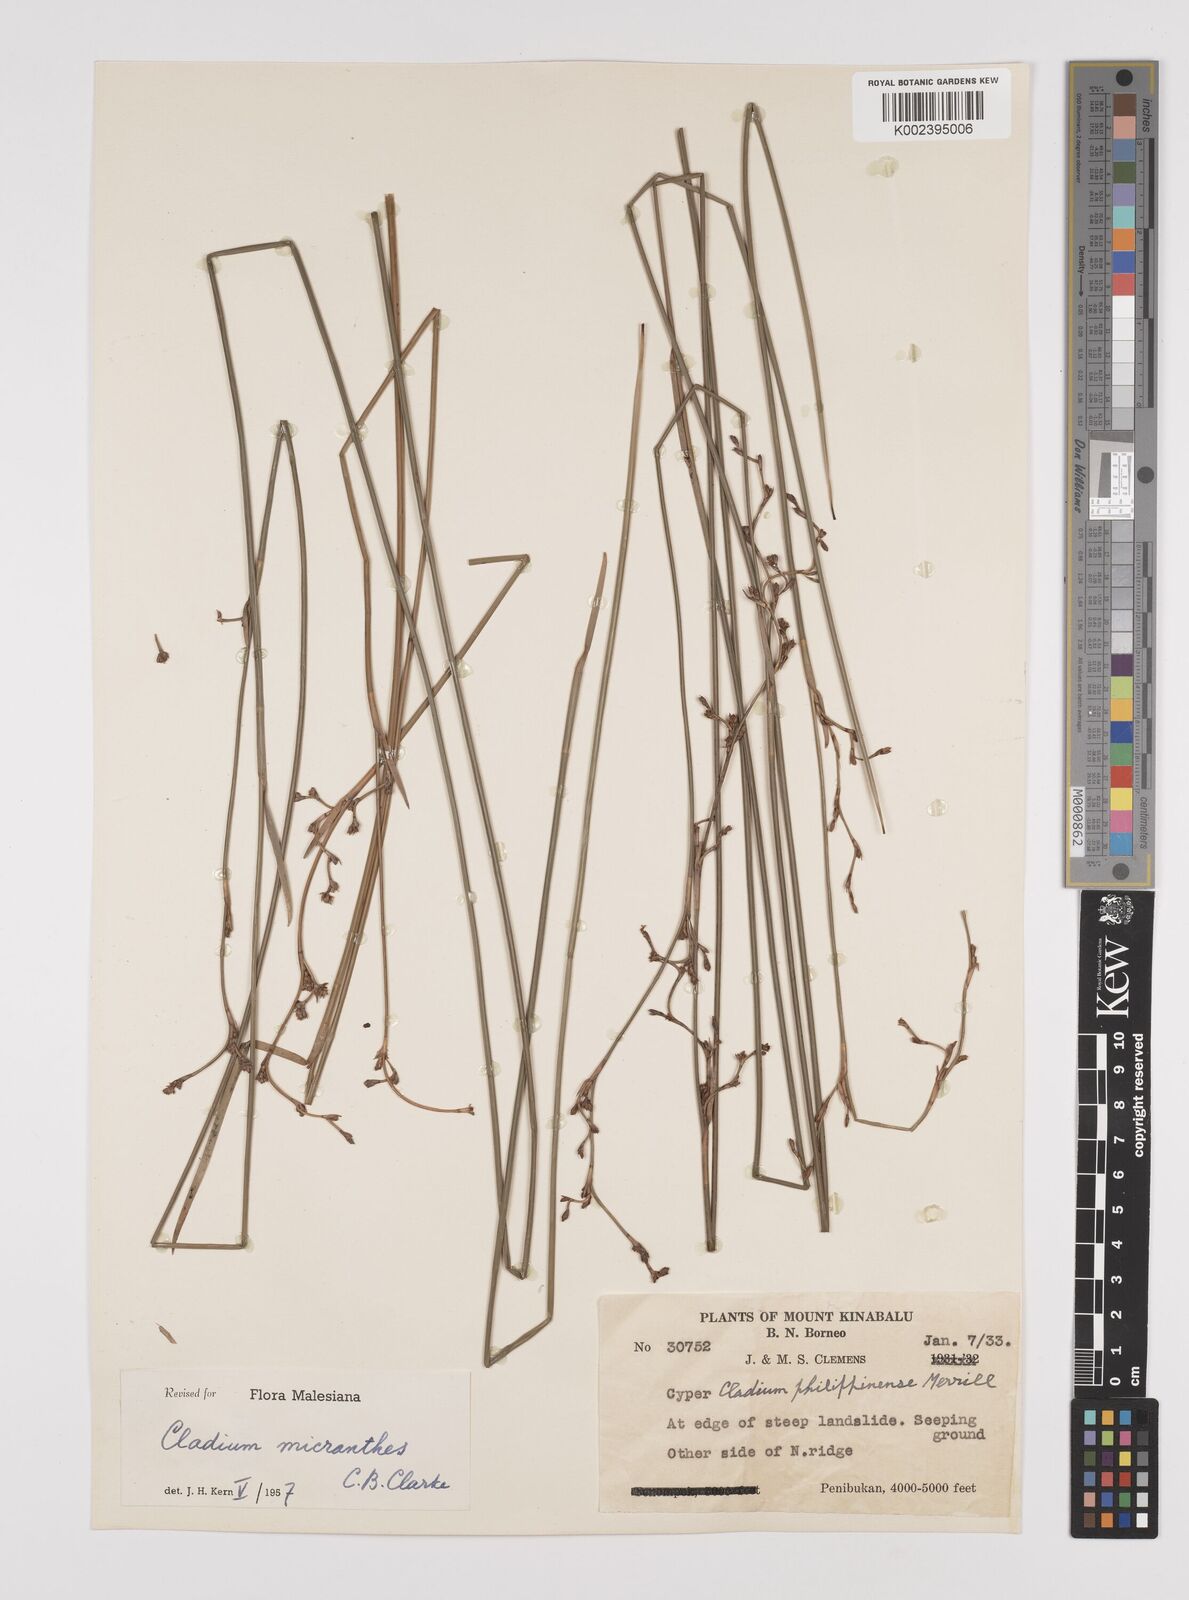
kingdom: Plantae
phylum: Tracheophyta
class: Liliopsida
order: Poales
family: Cyperaceae
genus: Machaerina
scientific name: Machaerina disticha
